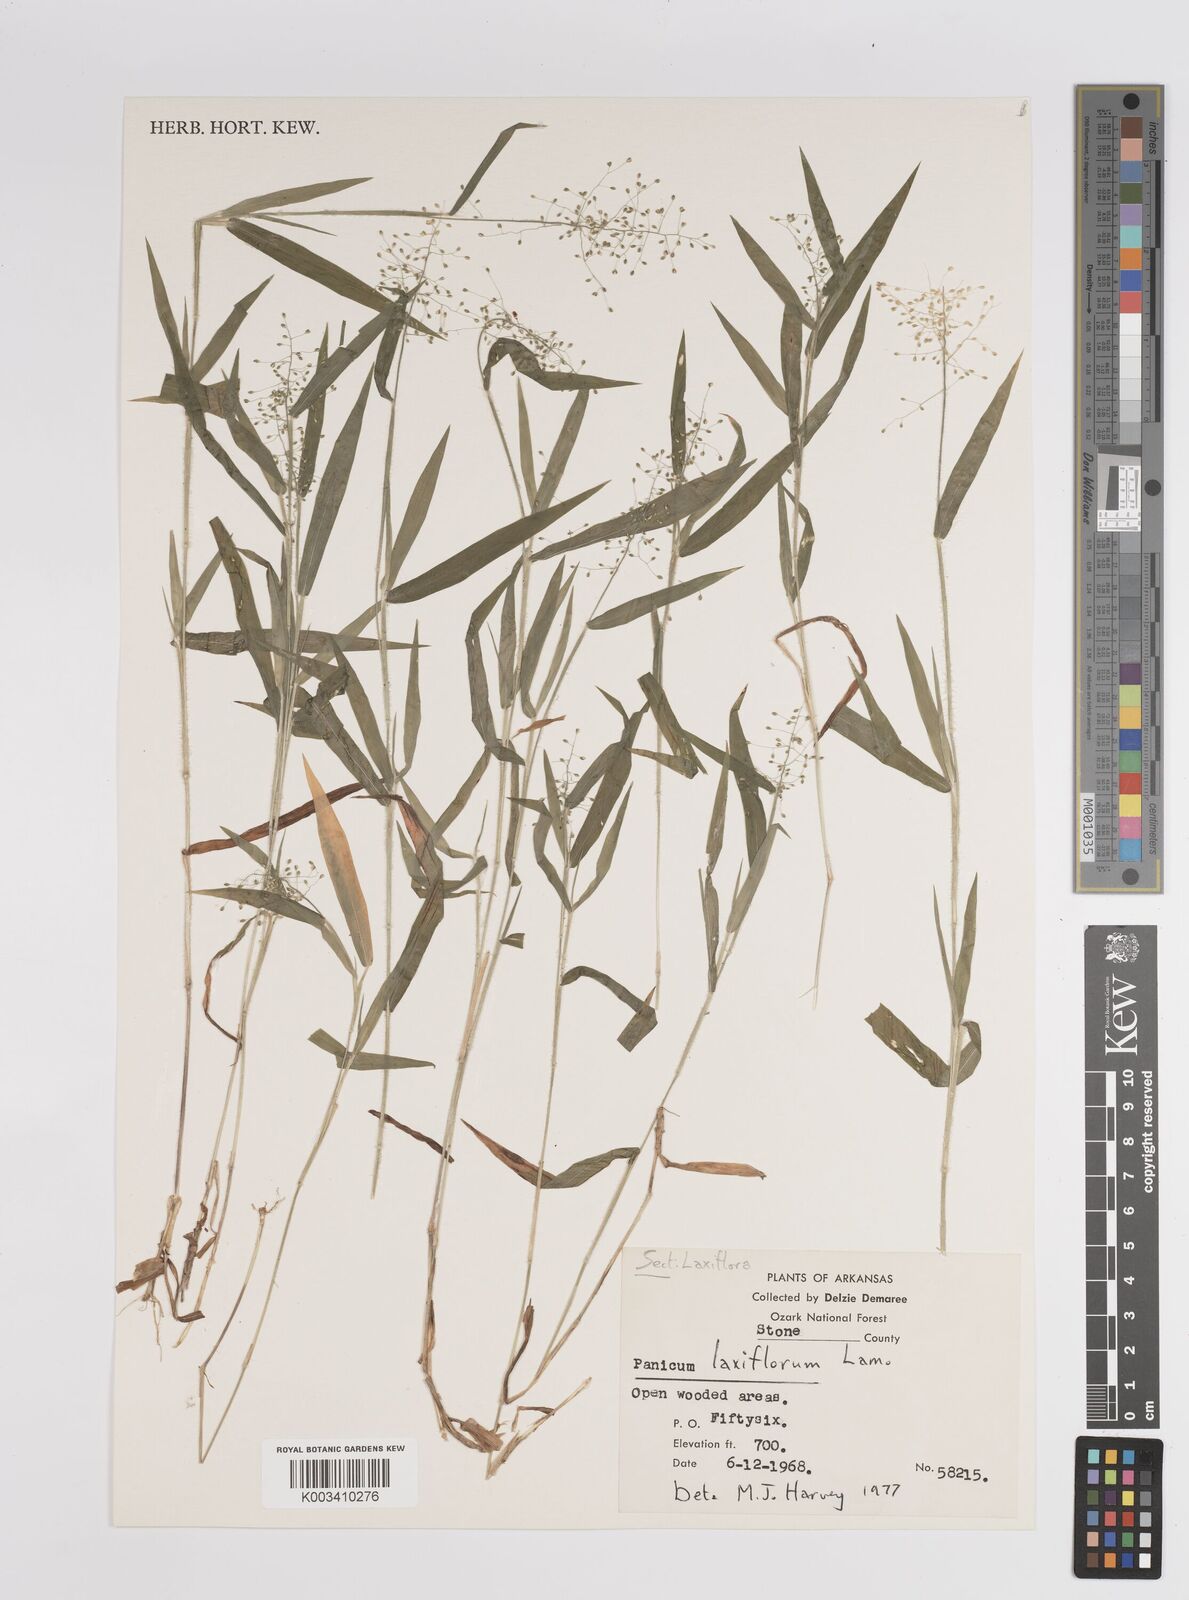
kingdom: Plantae
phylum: Tracheophyta
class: Liliopsida
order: Poales
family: Poaceae
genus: Dichanthelium
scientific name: Dichanthelium laxiflorum
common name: Soft-tuft panic grass
